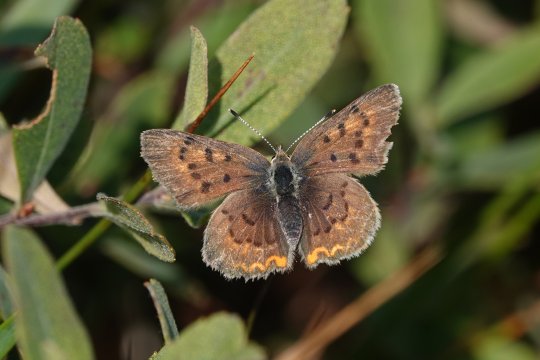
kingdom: Animalia
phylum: Arthropoda
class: Insecta
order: Lepidoptera
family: Lycaenidae
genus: Epidemia
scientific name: Epidemia dorcas
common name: Dorcas Copper
